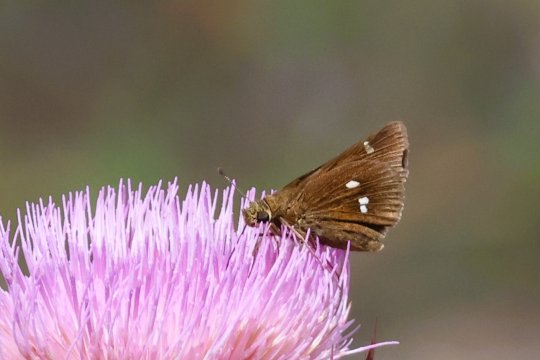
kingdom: Animalia
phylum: Arthropoda
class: Insecta
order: Lepidoptera
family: Hesperiidae
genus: Oligoria
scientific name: Oligoria maculata
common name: Twin-spot Skipper
